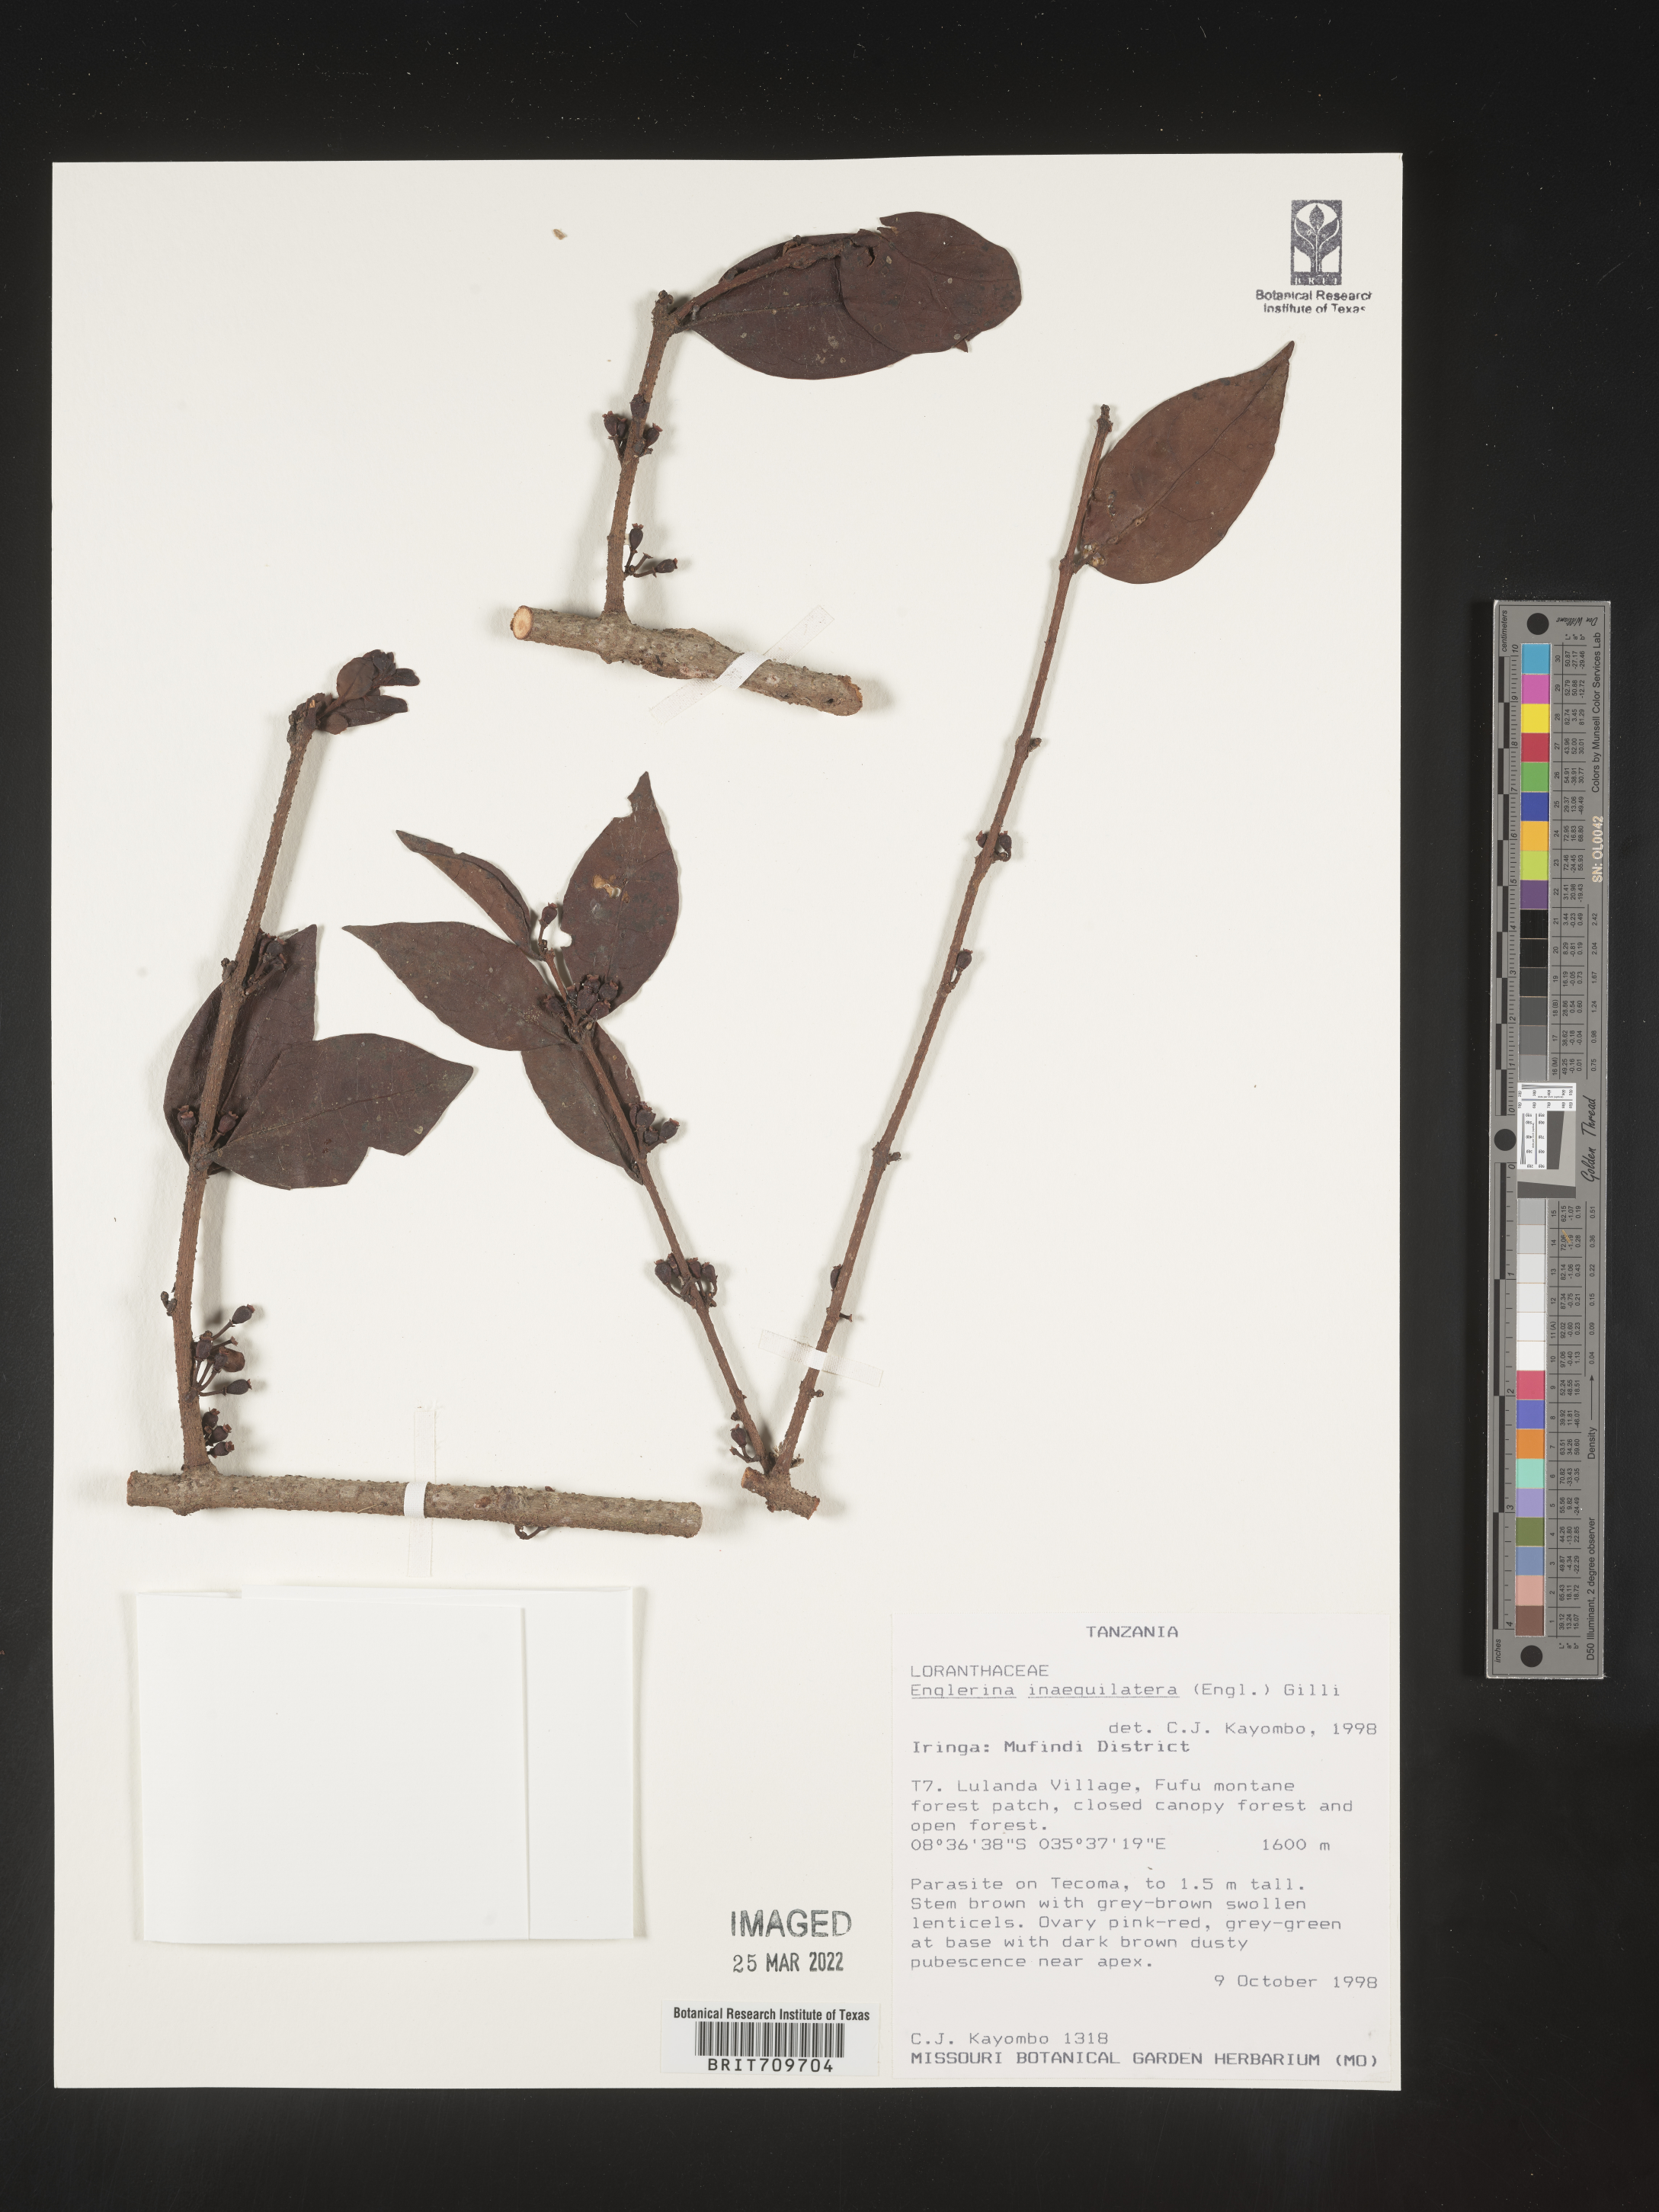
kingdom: Plantae
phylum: Tracheophyta
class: Magnoliopsida
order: Santalales
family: Loranthaceae
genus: Englerina
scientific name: Englerina
